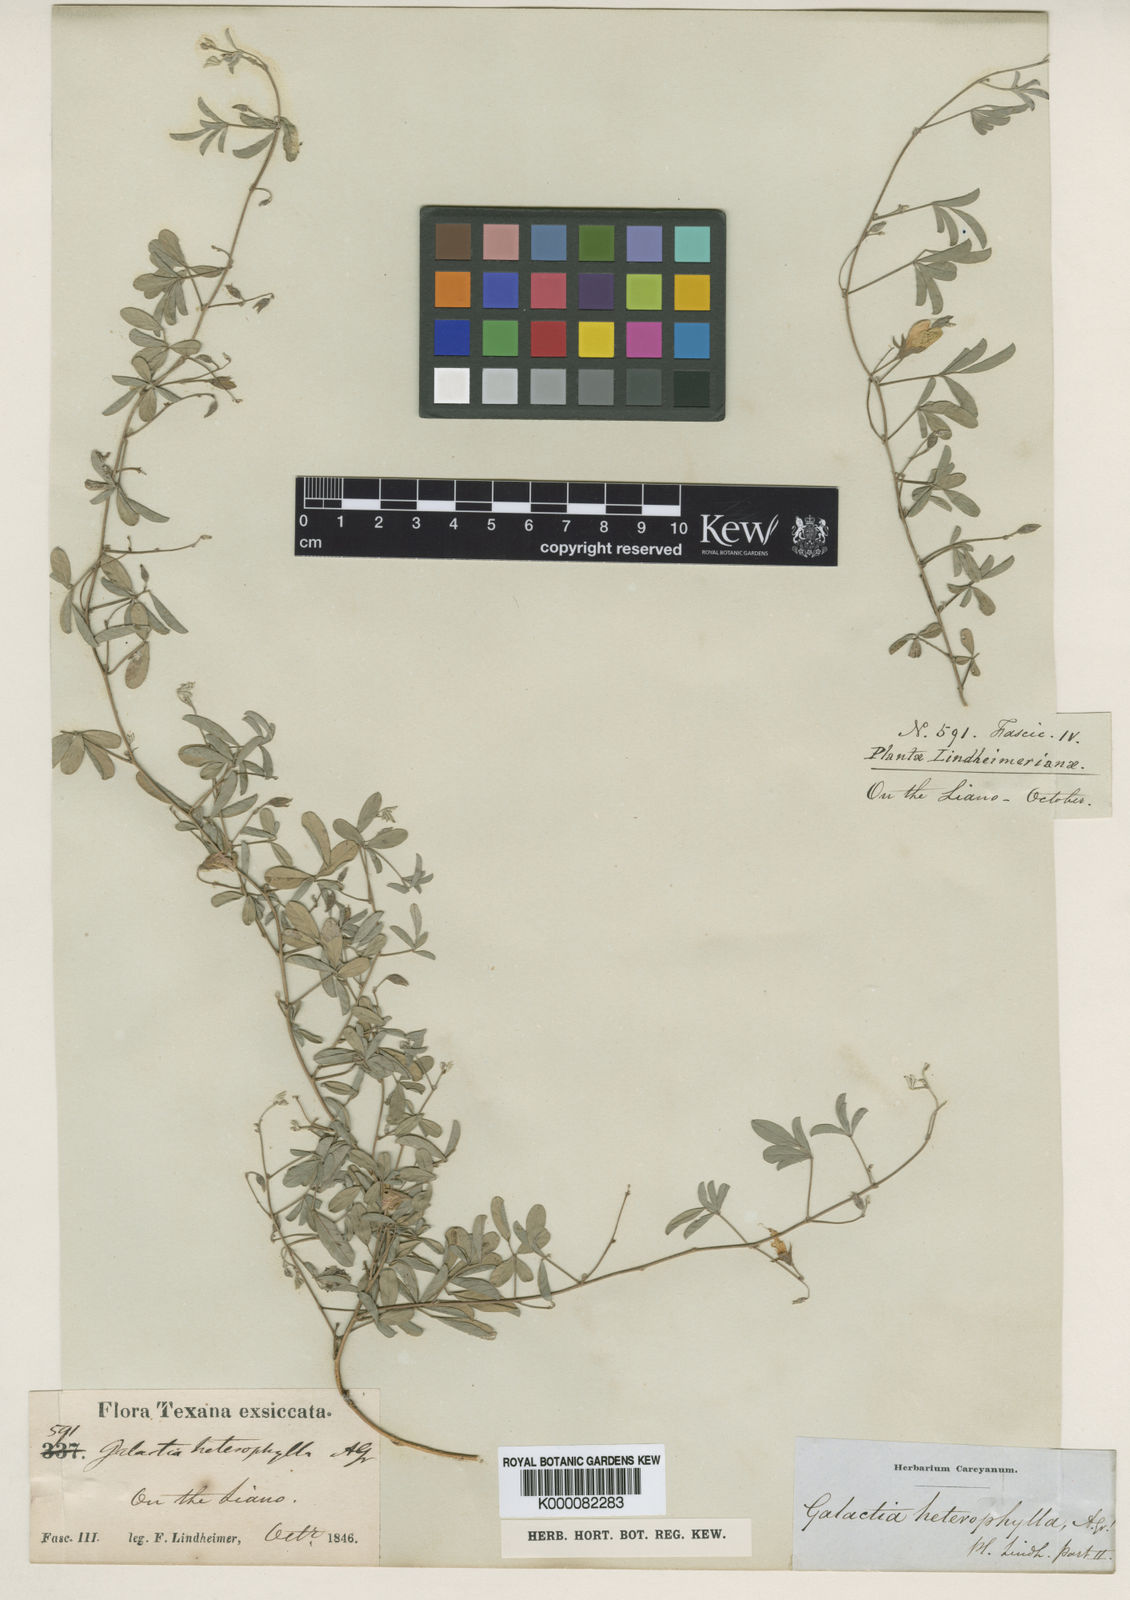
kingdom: Plantae
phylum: Tracheophyta
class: Magnoliopsida
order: Fabales
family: Fabaceae
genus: Galactia
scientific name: Galactia heterophylla
